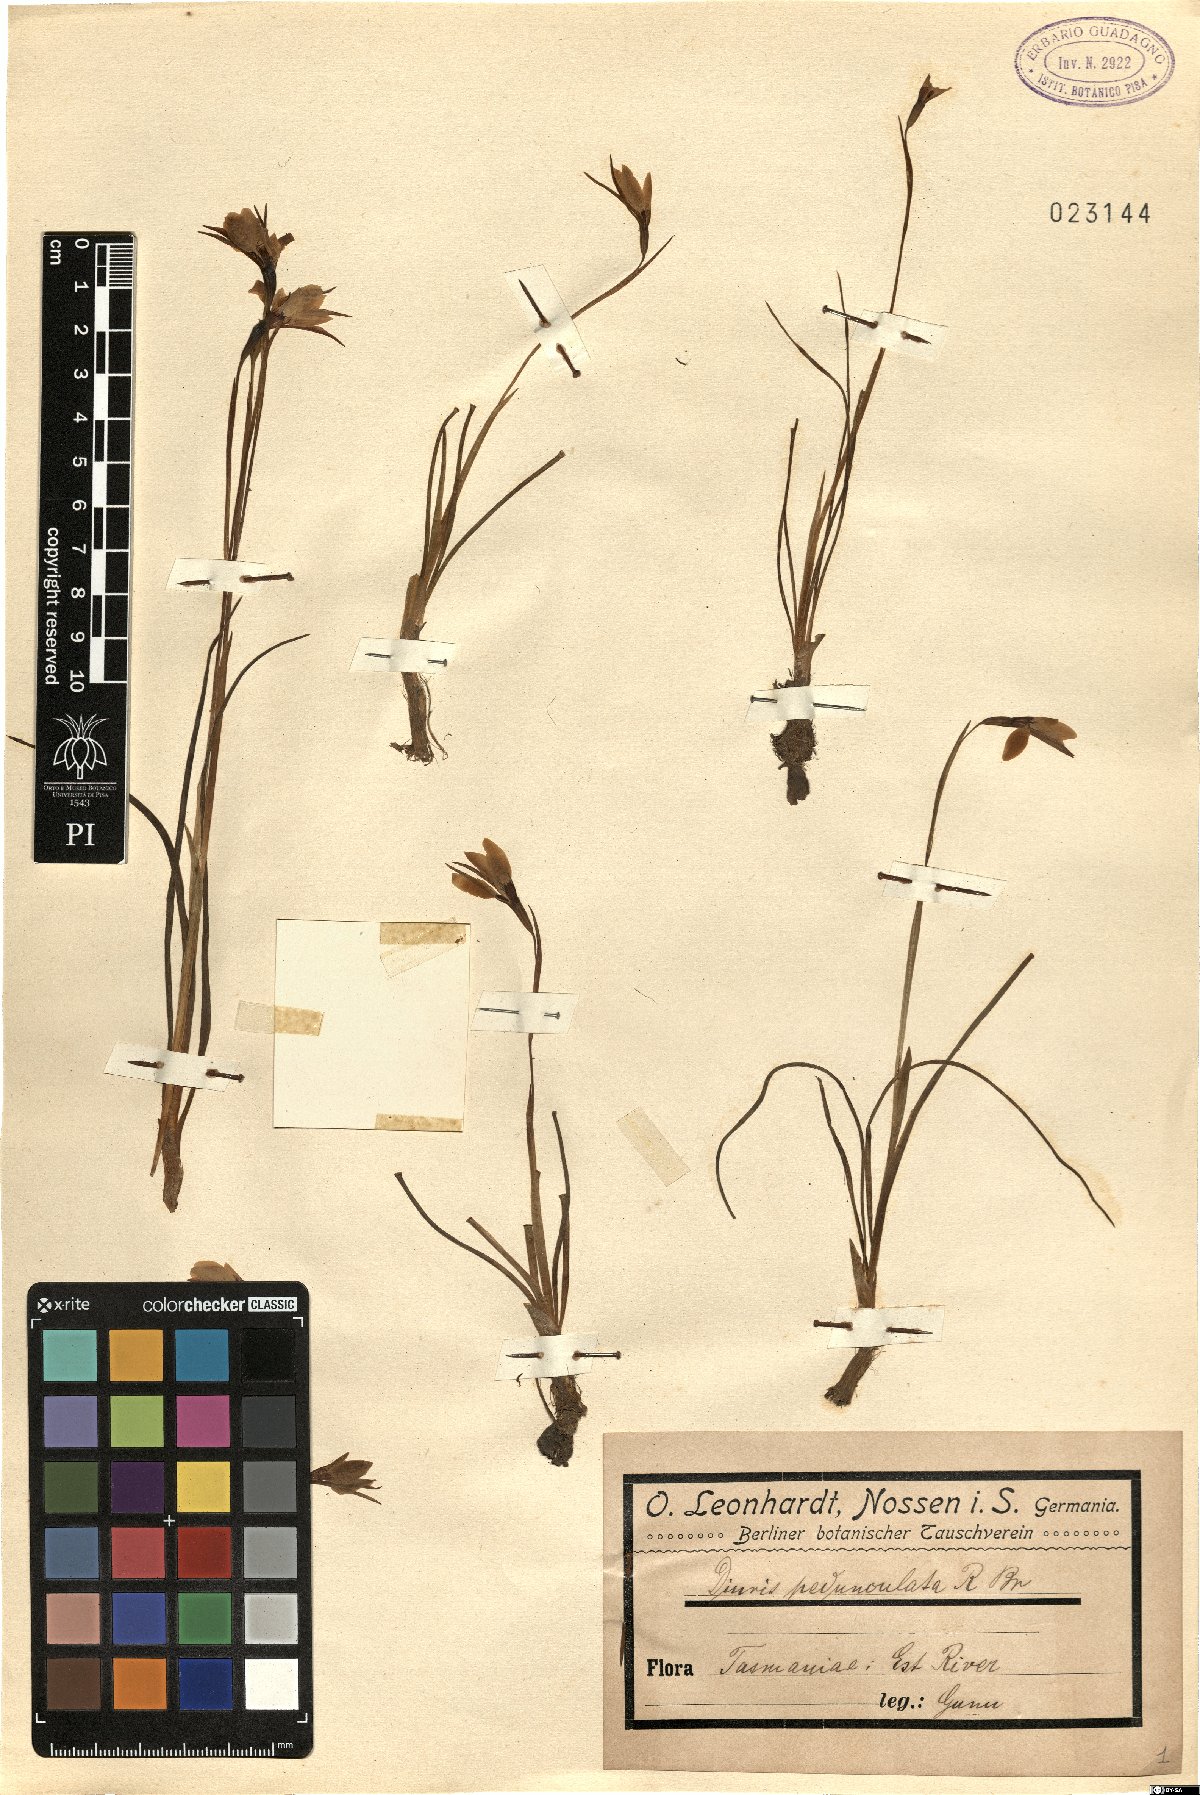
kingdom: Plantae
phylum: Tracheophyta
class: Liliopsida
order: Asparagales
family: Orchidaceae
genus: Diuris
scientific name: Diuris pedunculata
